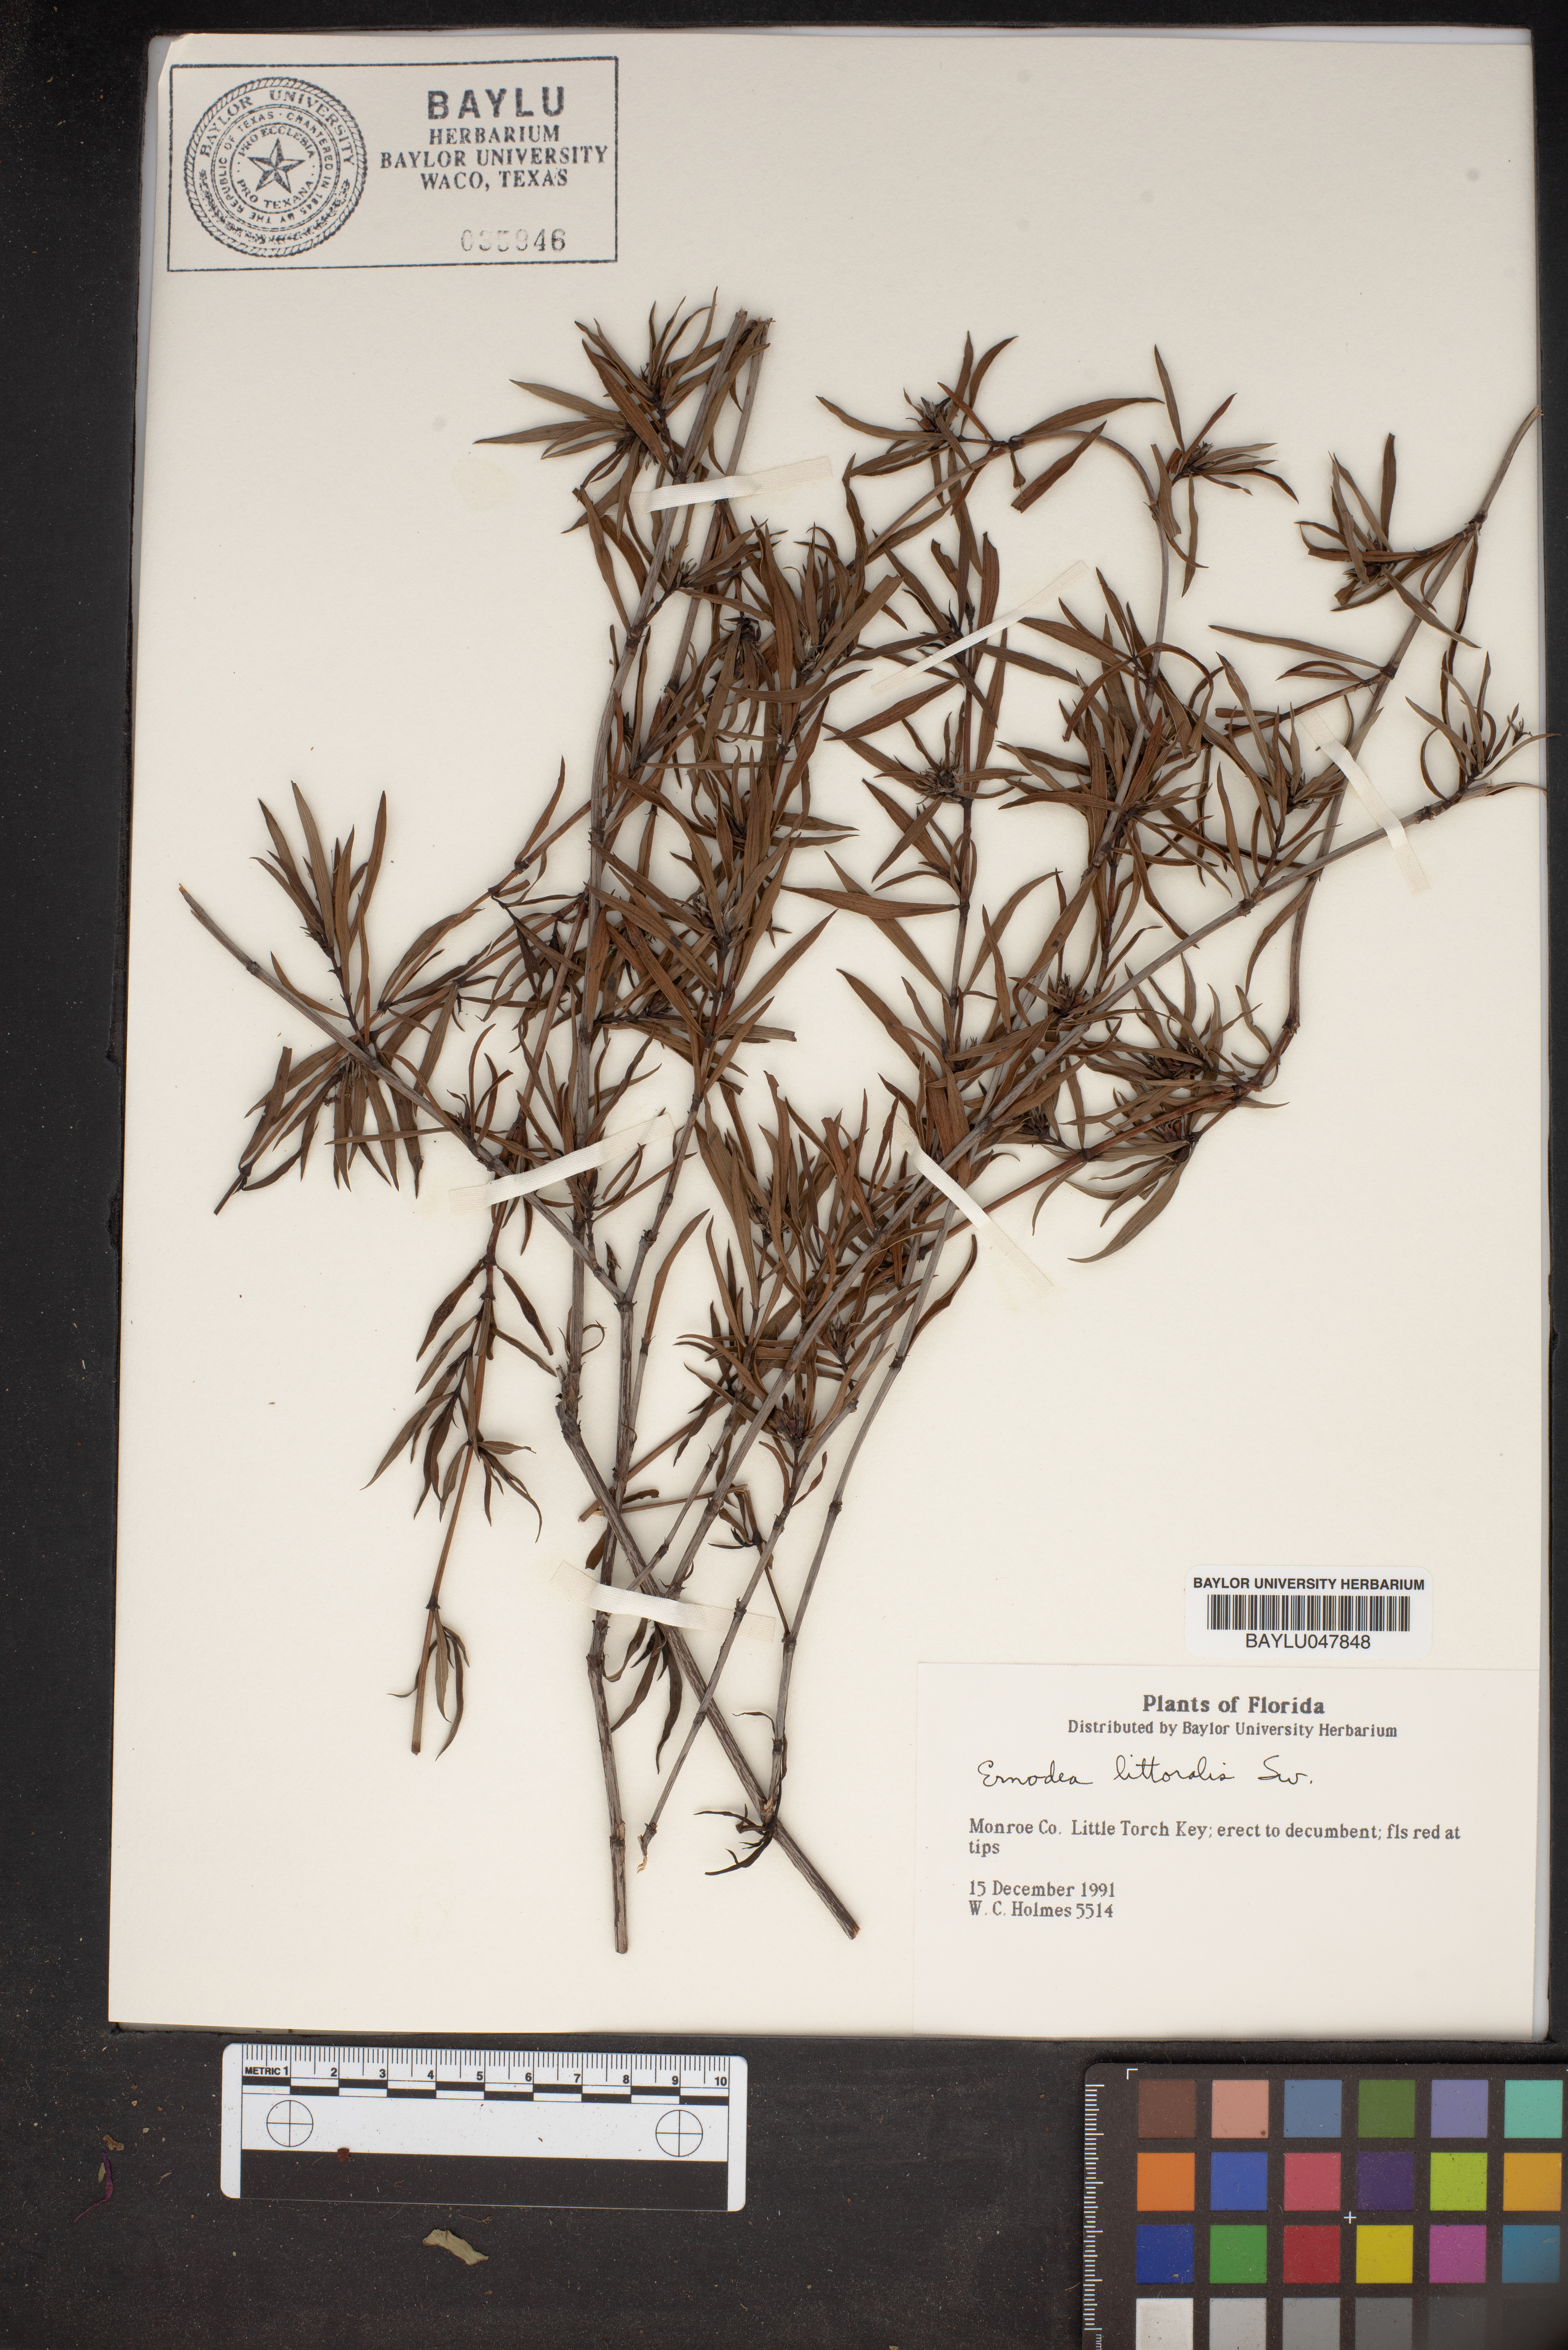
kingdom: Plantae
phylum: Tracheophyta
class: Magnoliopsida
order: Gentianales
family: Rubiaceae
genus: Ernodea
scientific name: Ernodea littoralis
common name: Beach creeper
